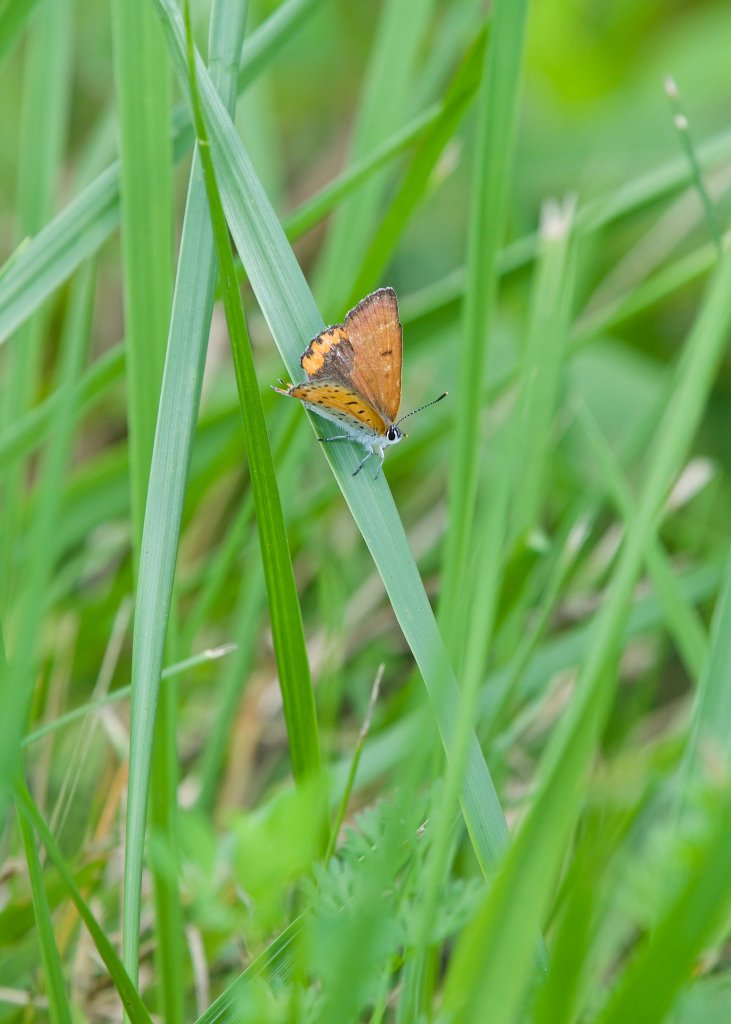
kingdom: Animalia
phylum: Arthropoda
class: Insecta
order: Lepidoptera
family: Sesiidae
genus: Sesia
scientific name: Sesia Lycaena hyllus
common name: Bronze Copper
